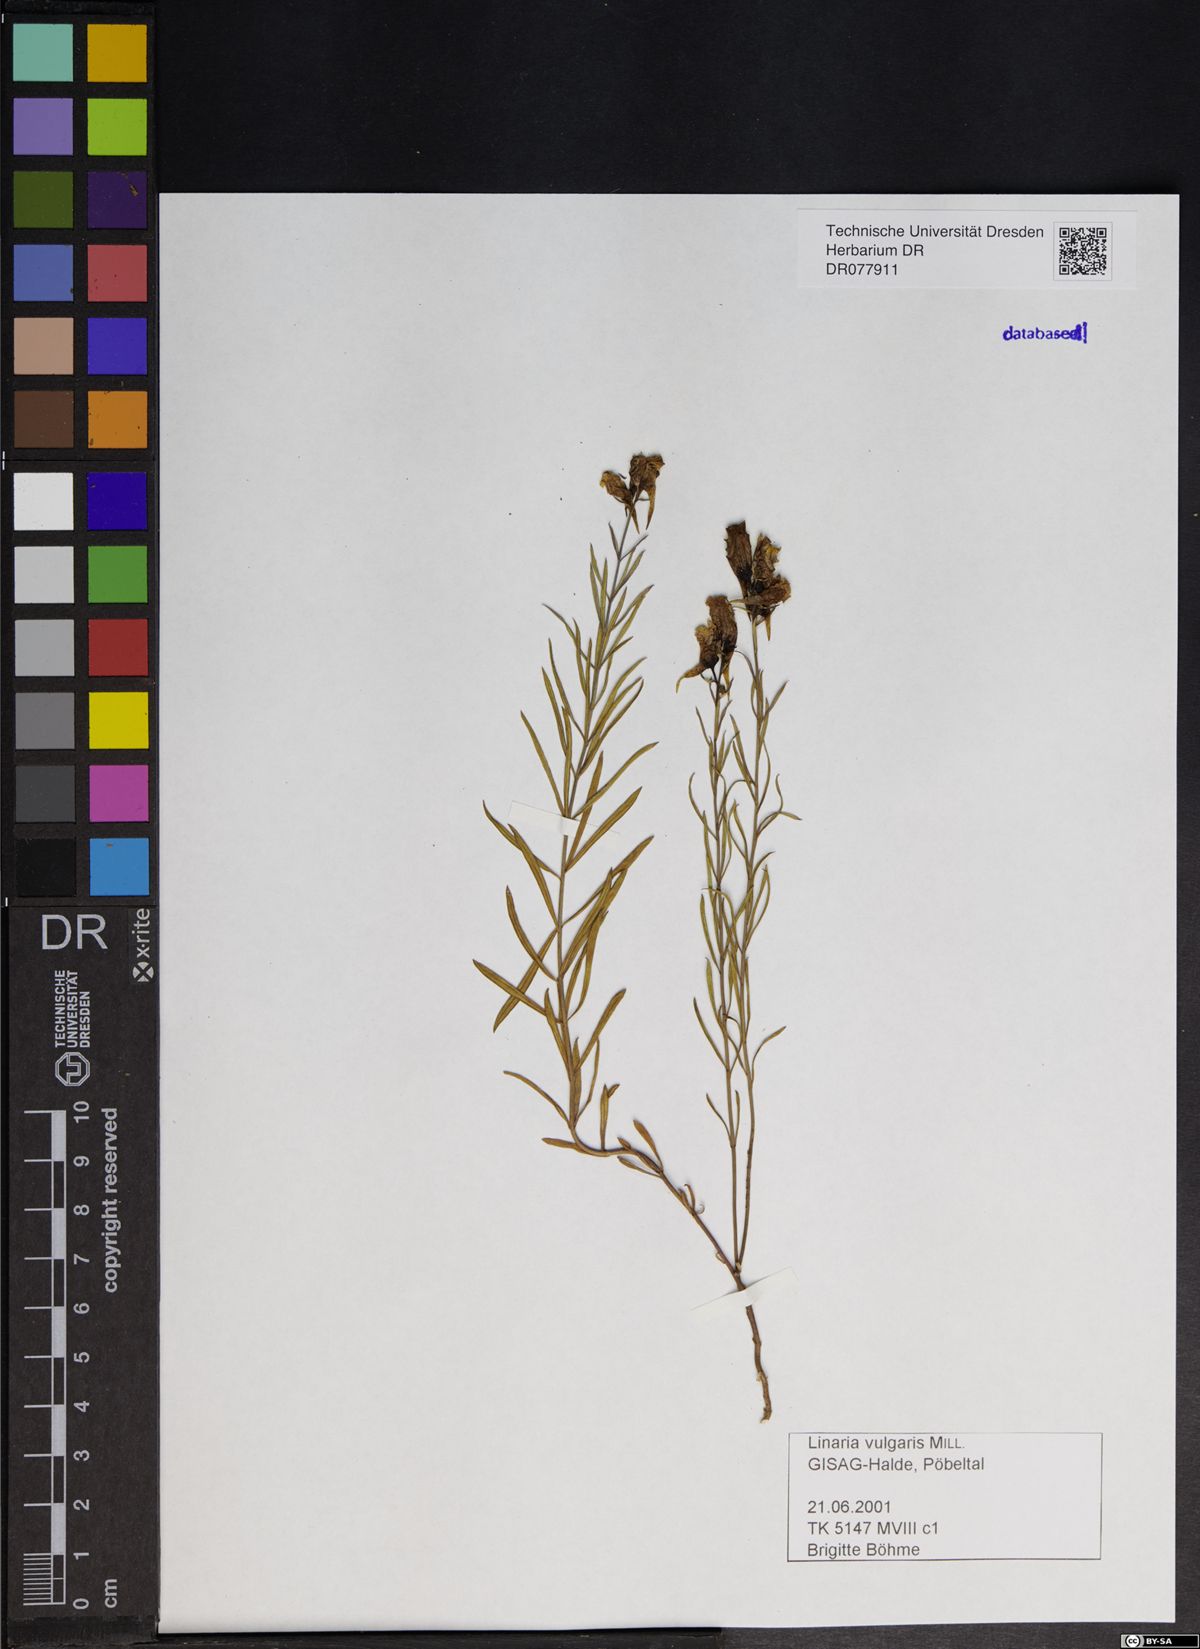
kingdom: Plantae
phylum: Tracheophyta
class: Magnoliopsida
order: Lamiales
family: Plantaginaceae
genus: Linaria
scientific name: Linaria vulgaris
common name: Butter and eggs
